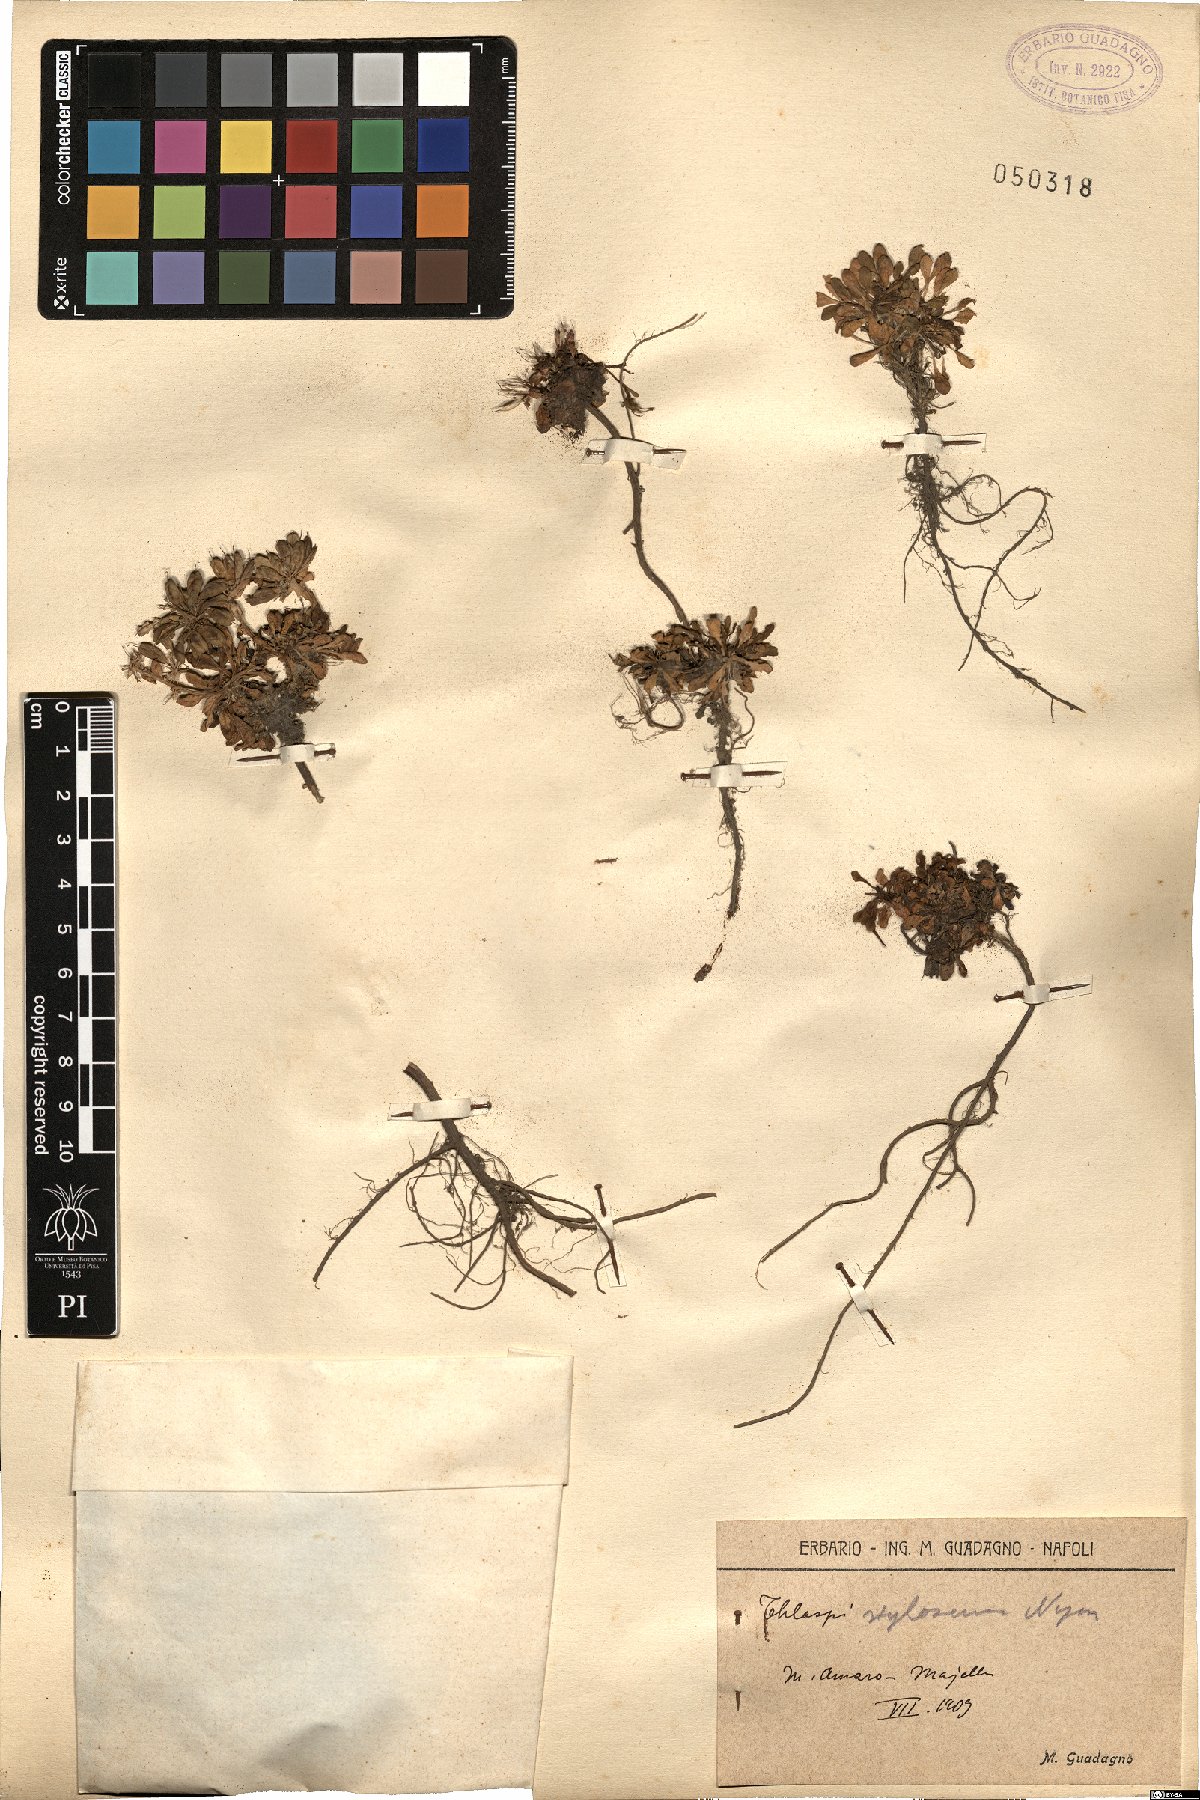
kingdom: Plantae
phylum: Tracheophyta
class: Magnoliopsida
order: Brassicales
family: Brassicaceae
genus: Noccaea
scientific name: Noccaea stilosa
